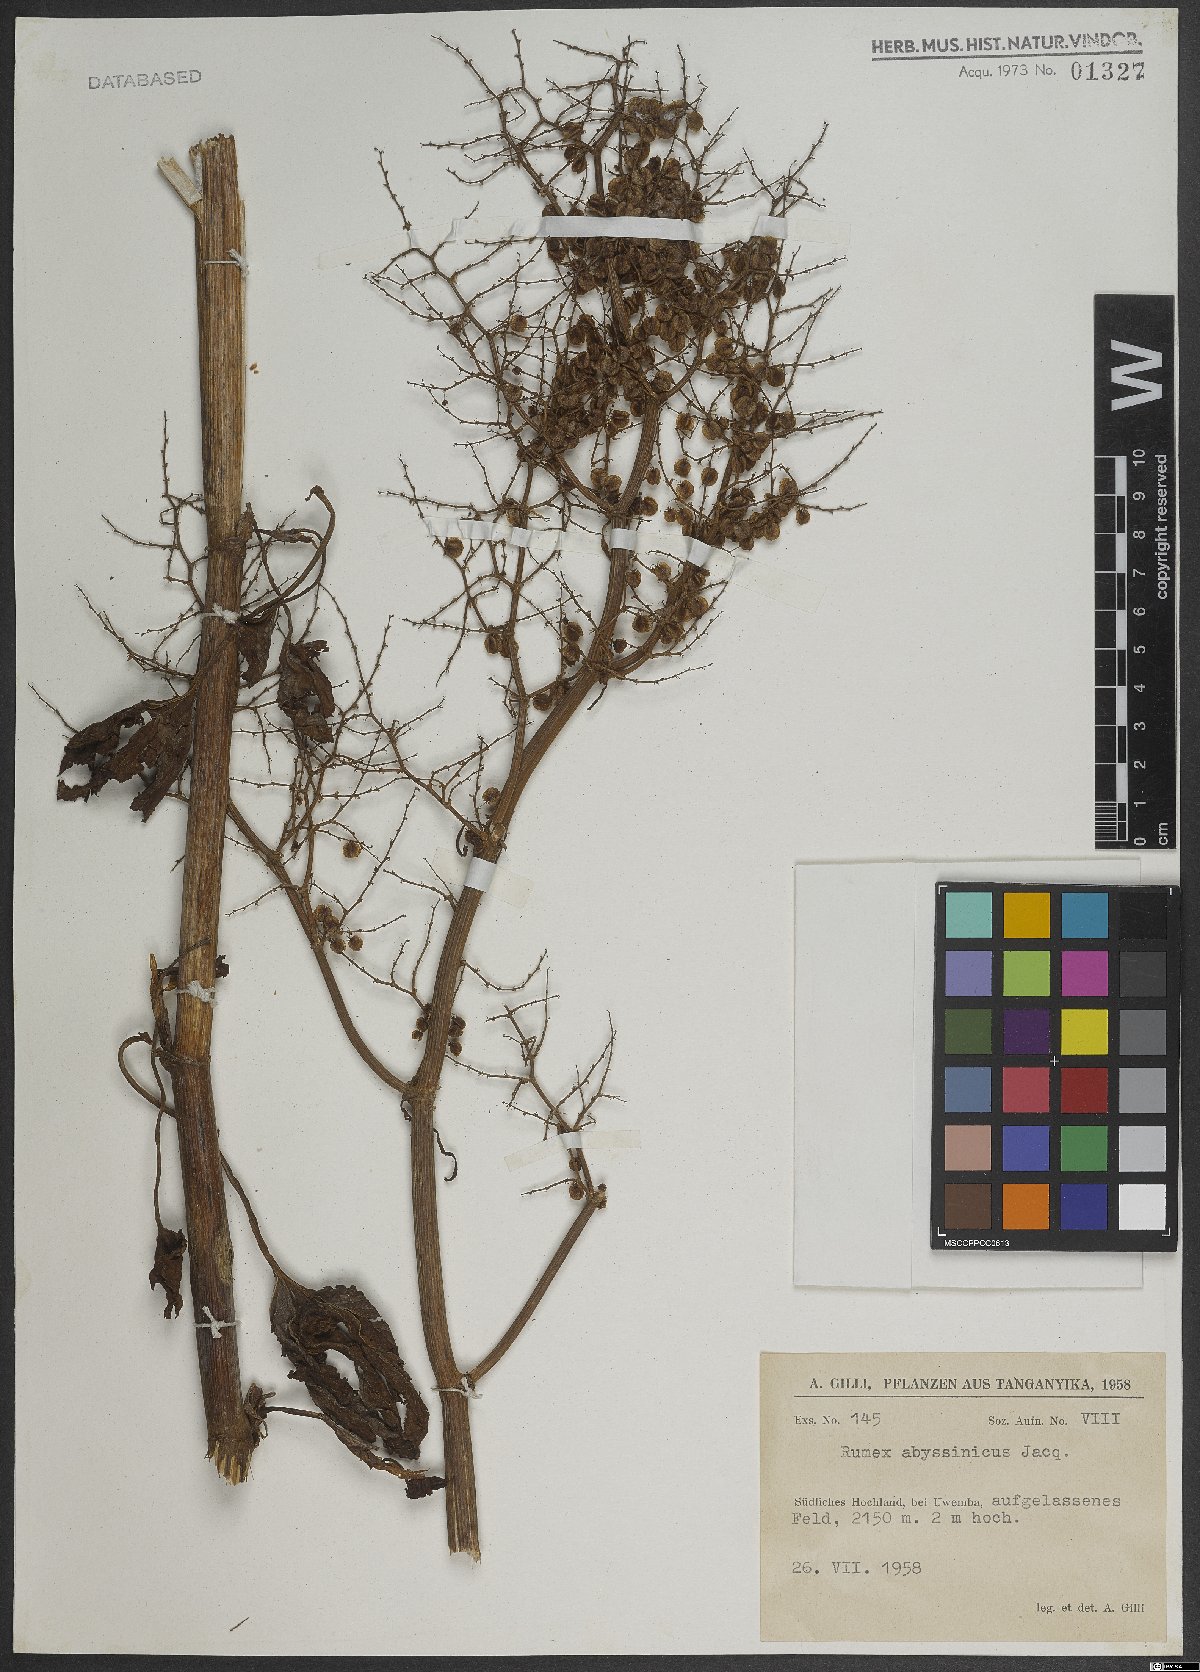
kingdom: Plantae
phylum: Tracheophyta
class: Magnoliopsida
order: Caryophyllales
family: Polygonaceae
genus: Rumex
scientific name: Rumex abyssinicus
